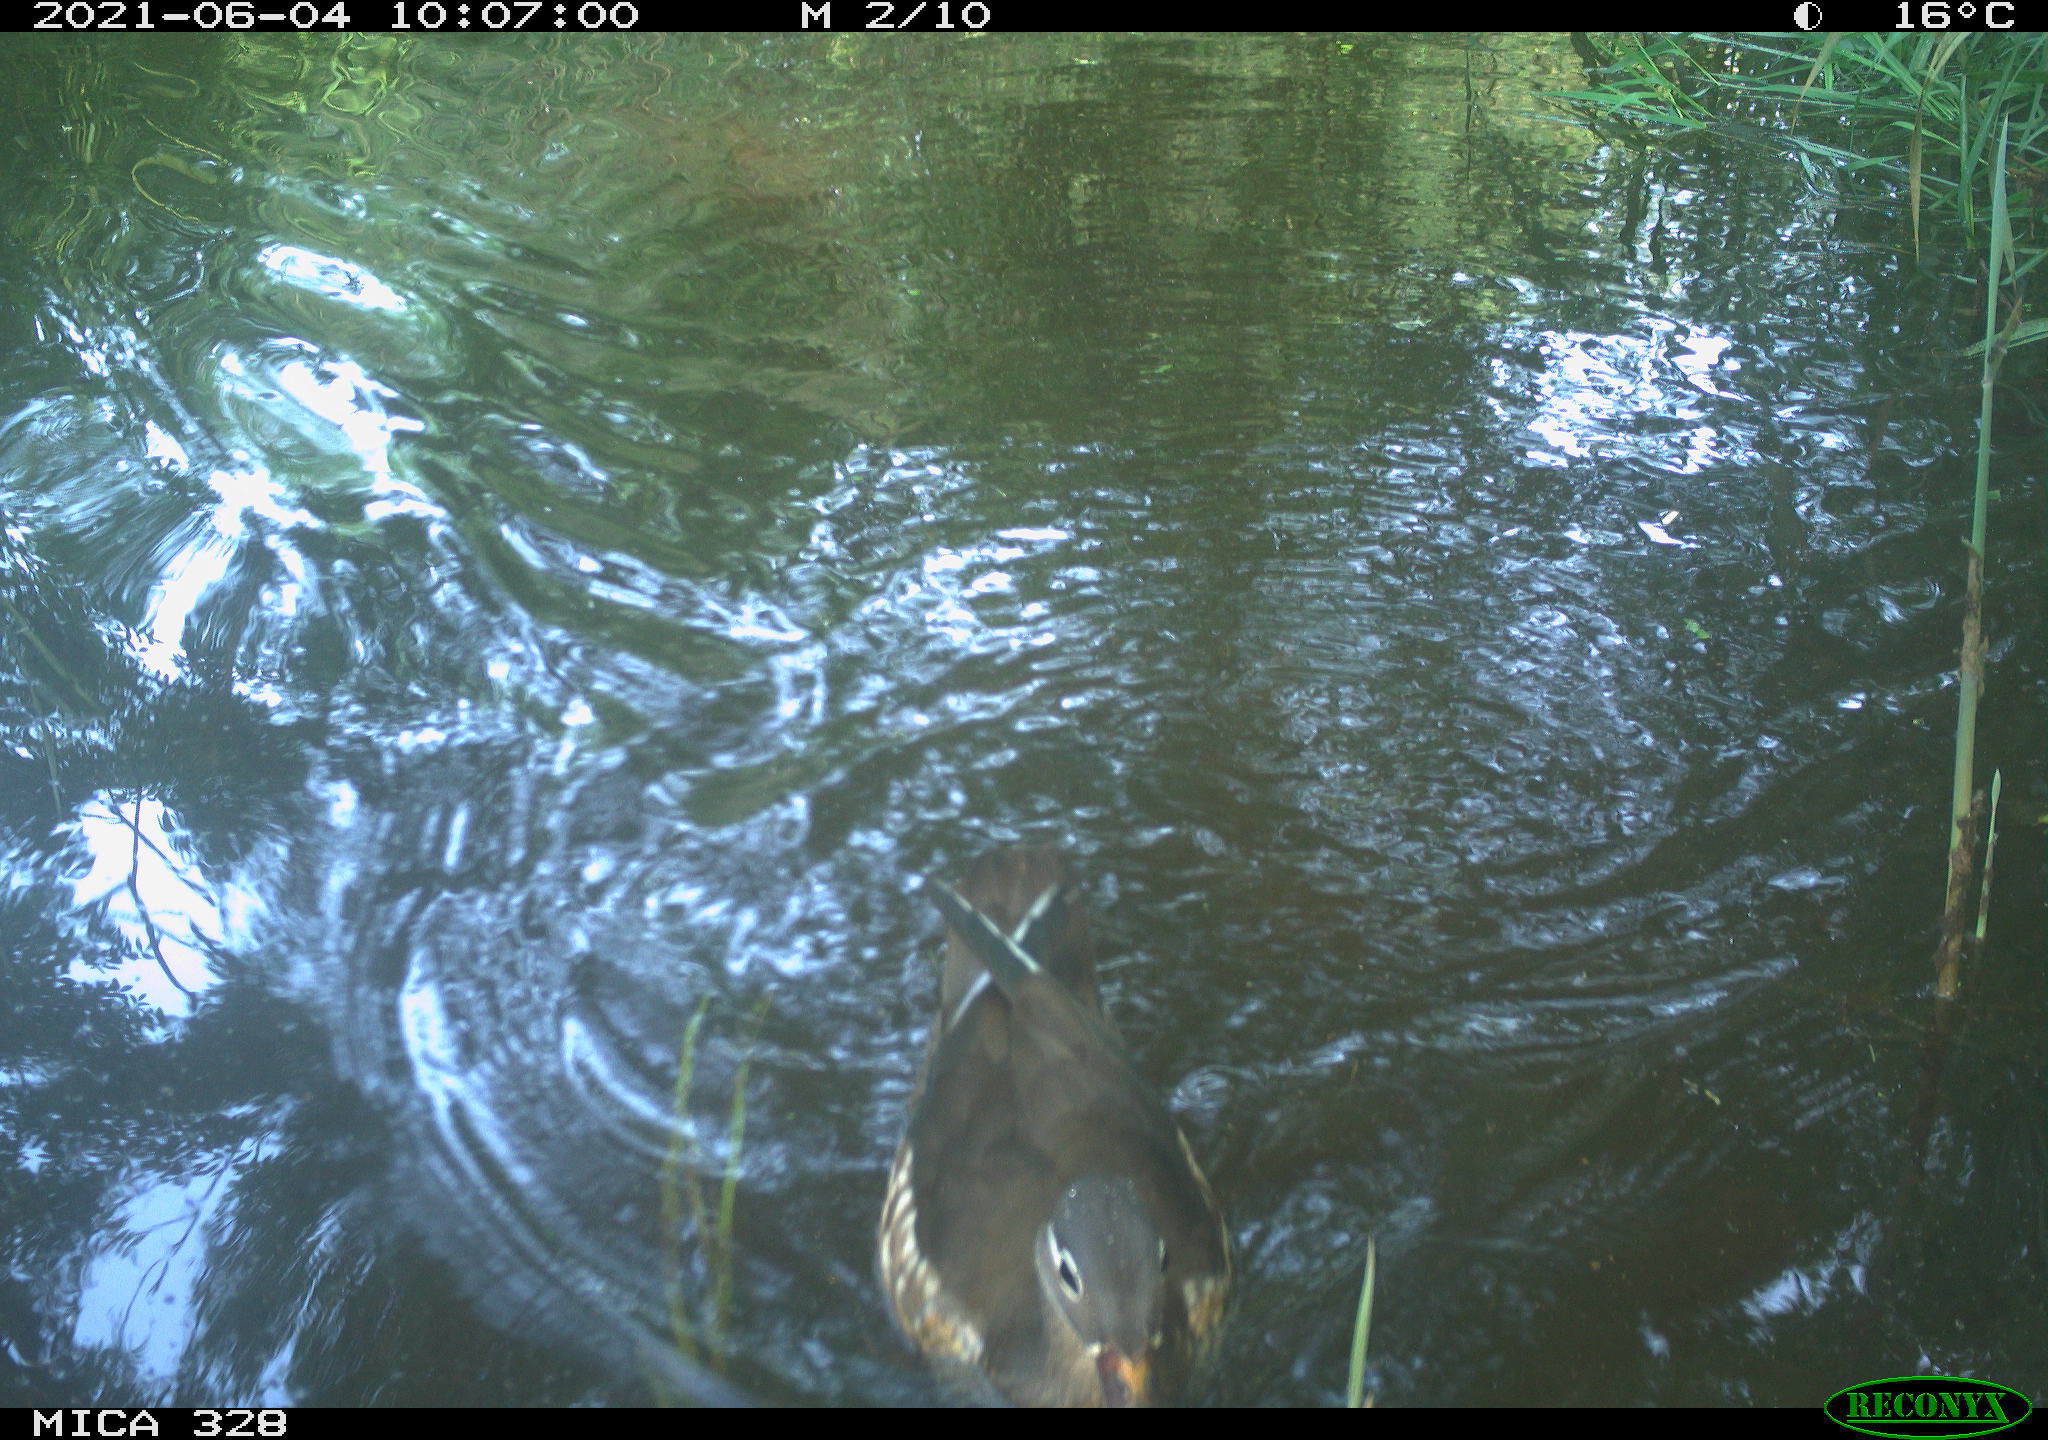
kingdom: Animalia
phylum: Chordata
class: Aves
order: Anseriformes
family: Anatidae
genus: Aix
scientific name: Aix galericulata
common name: Mandarin duck
